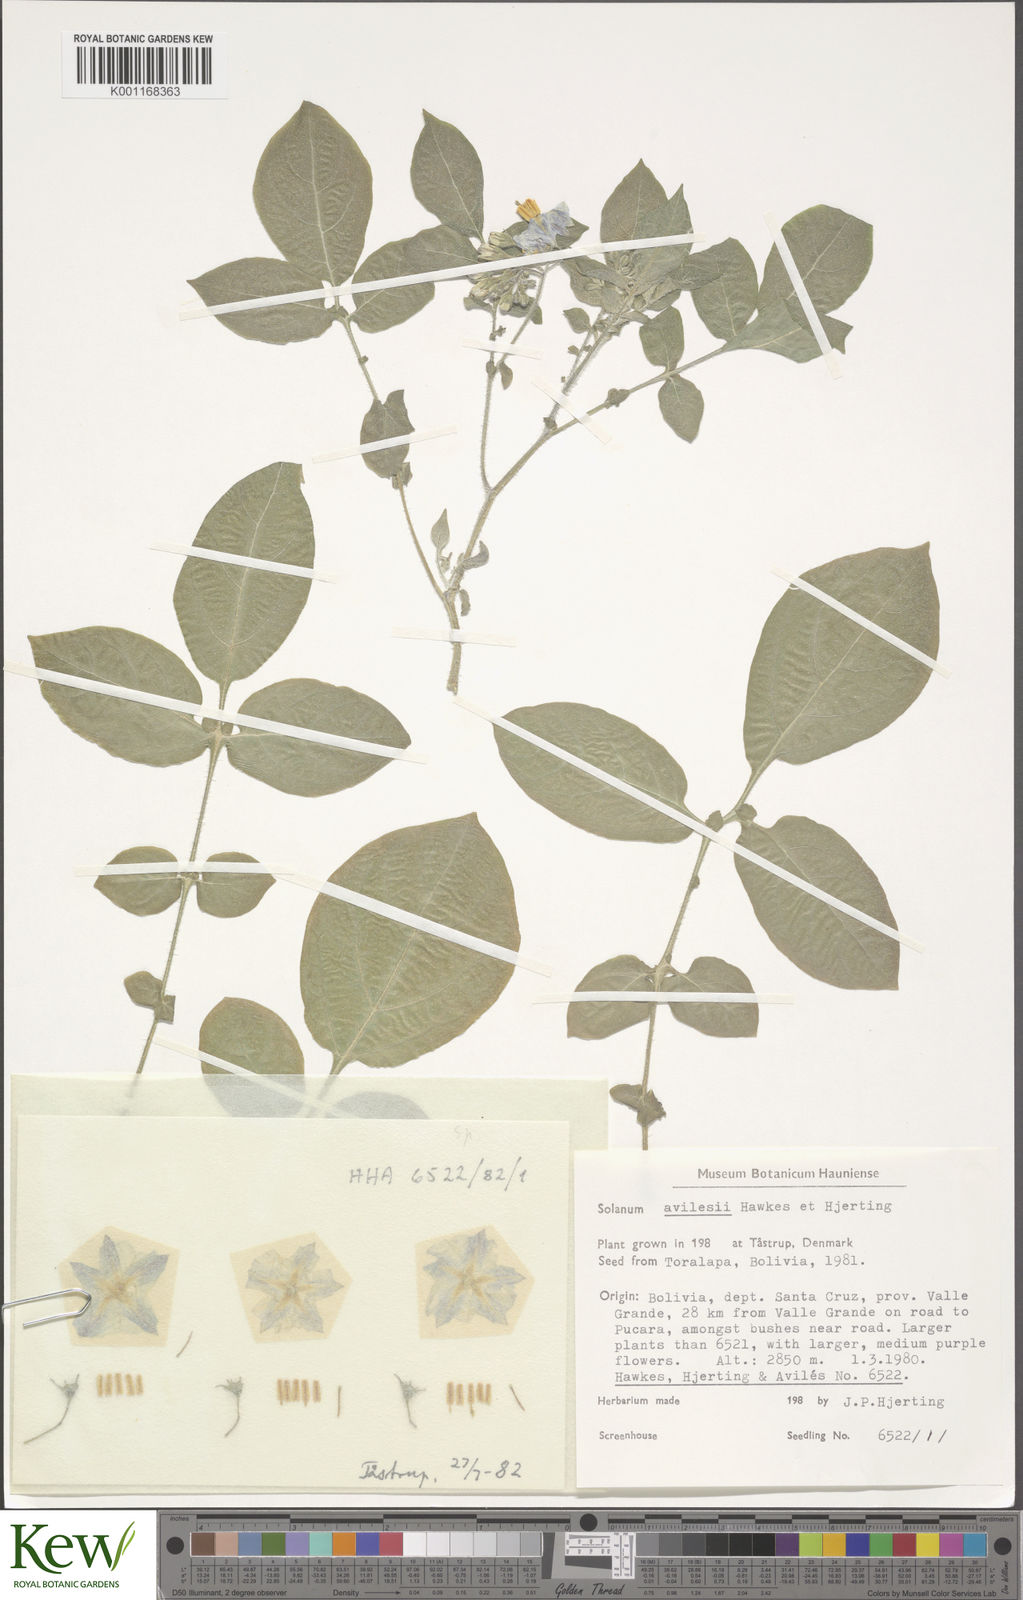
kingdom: Plantae
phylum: Tracheophyta
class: Magnoliopsida
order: Solanales
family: Solanaceae
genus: Solanum
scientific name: Solanum brevicaule
